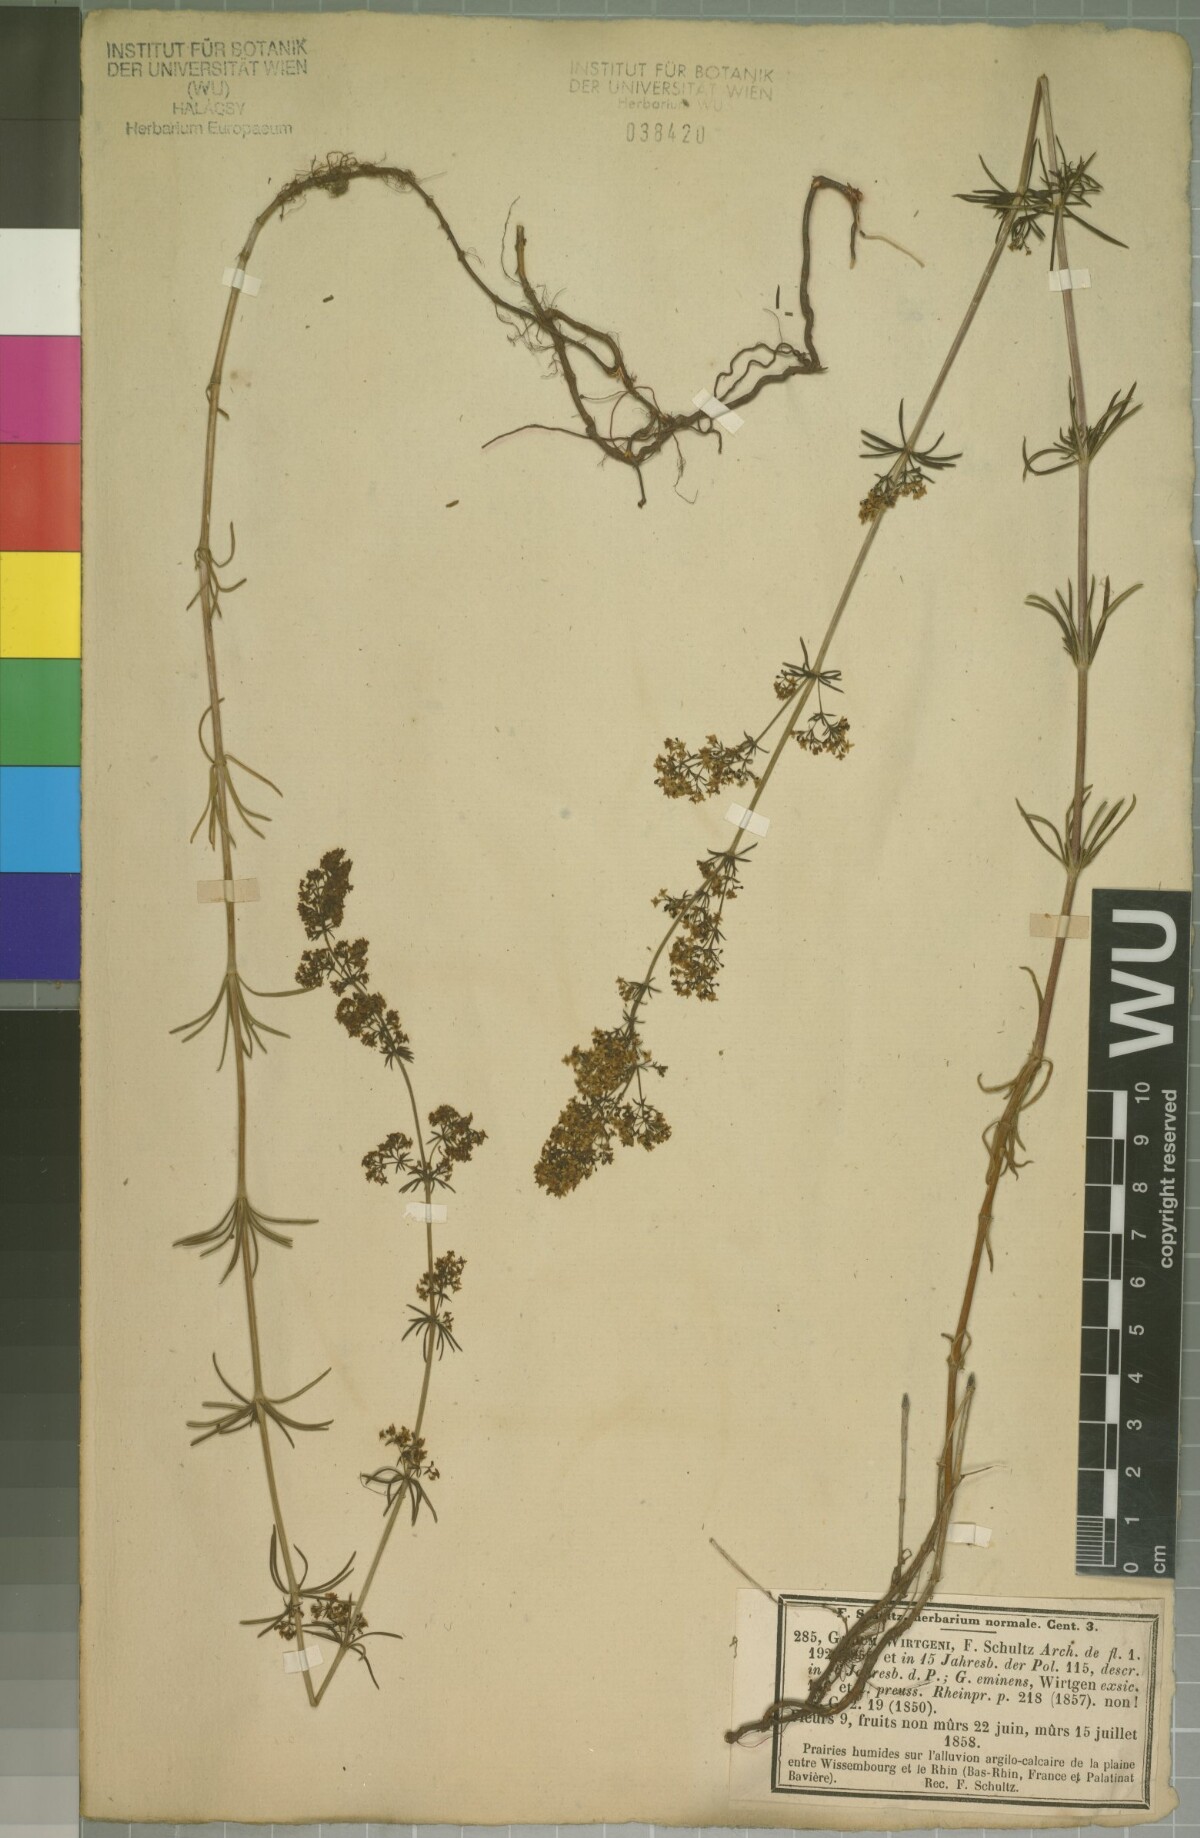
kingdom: Plantae
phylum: Tracheophyta
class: Magnoliopsida
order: Gentianales
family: Rubiaceae
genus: Galium
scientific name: Galium verum
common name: Lady's bedstraw
